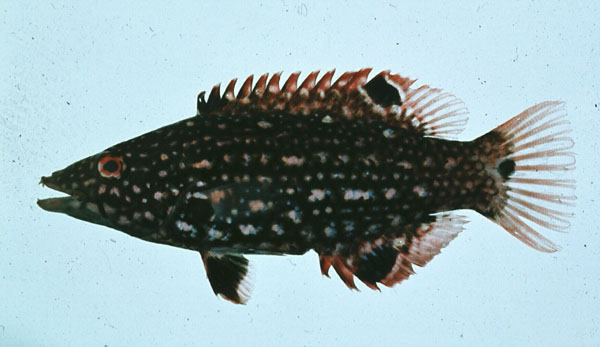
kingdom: Animalia
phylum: Chordata
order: Perciformes
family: Labridae
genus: Bodianus
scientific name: Bodianus diana
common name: Diana's hogfish
